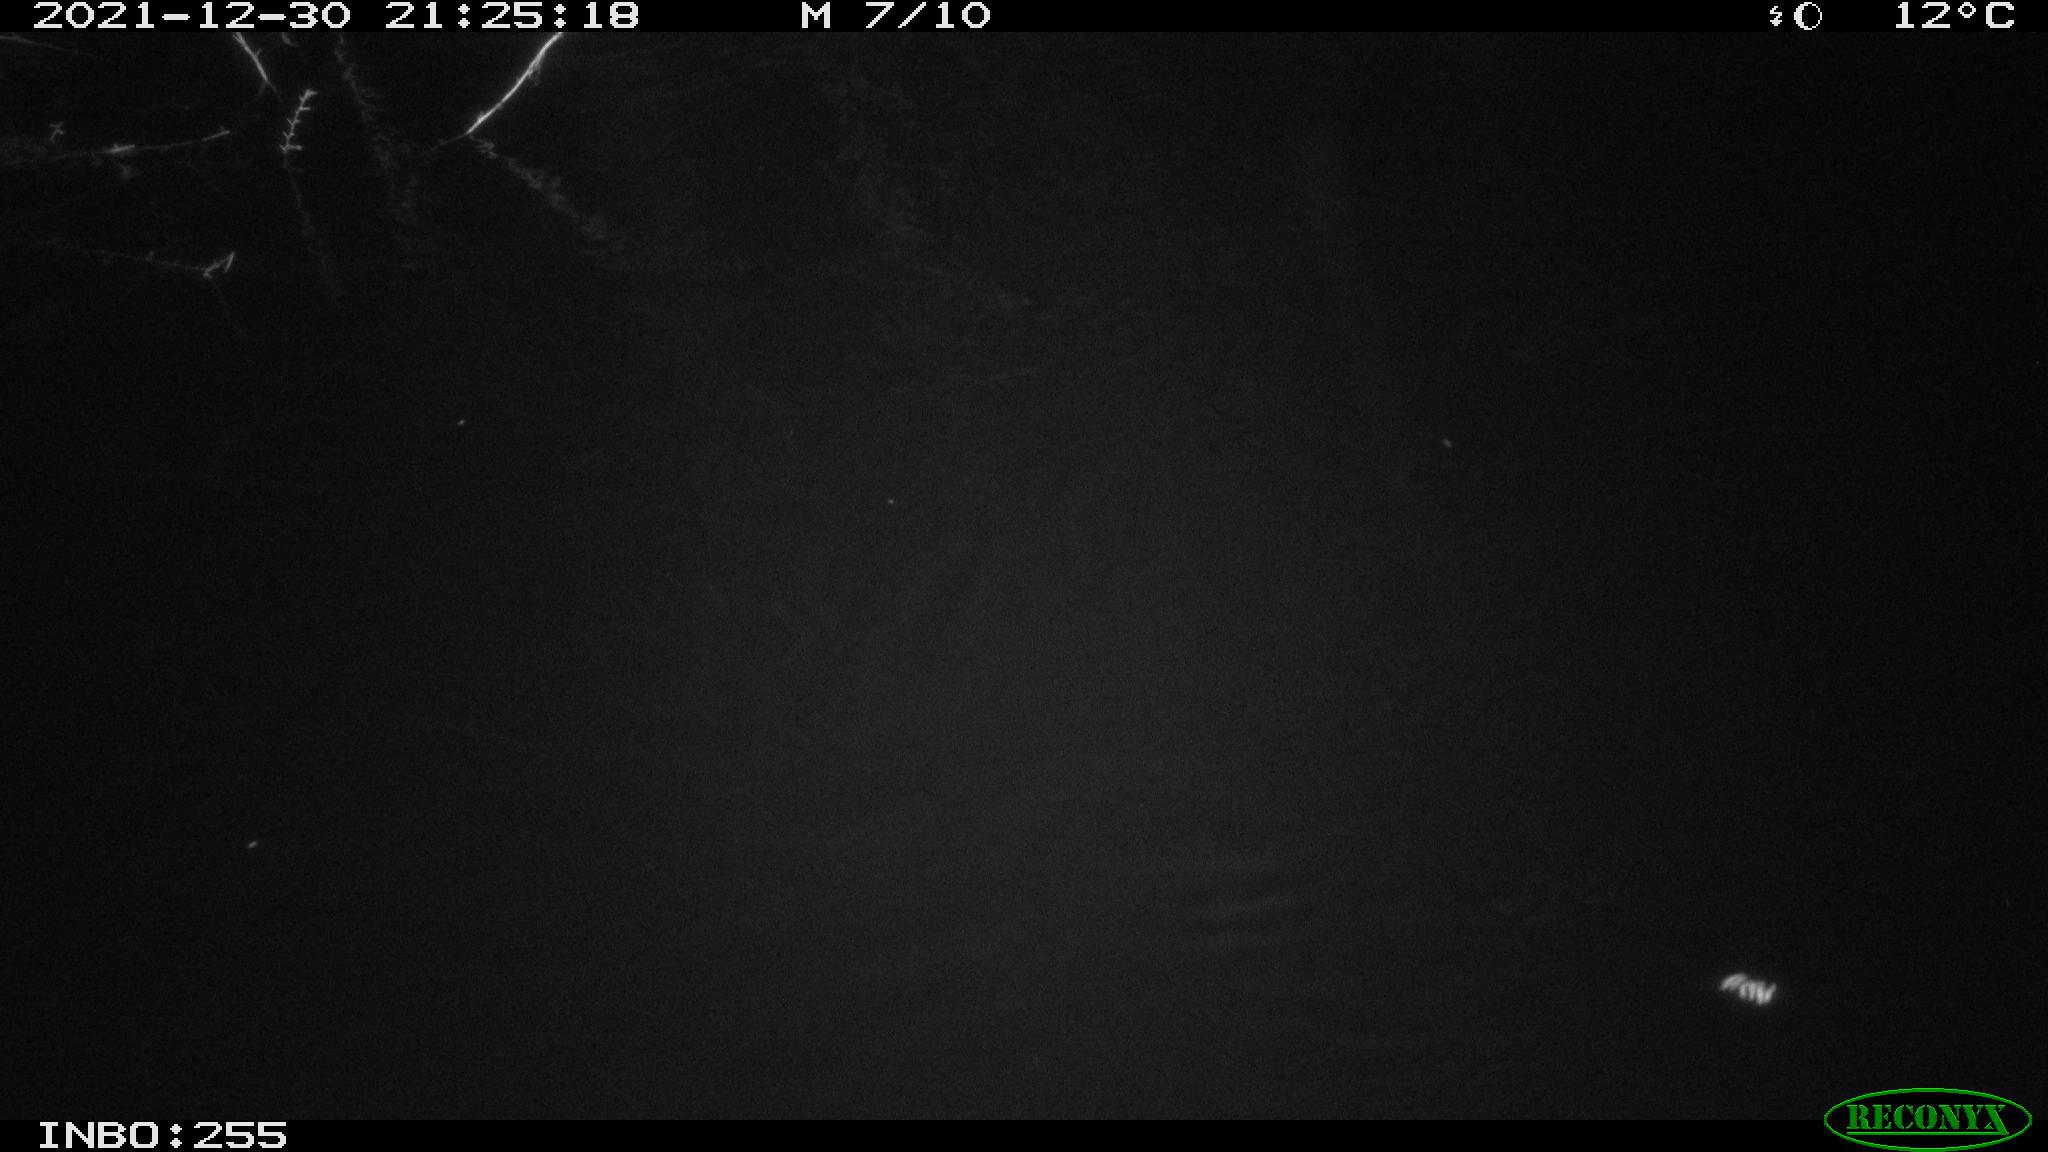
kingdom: Animalia
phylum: Chordata
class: Mammalia
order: Rodentia
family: Muridae
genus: Rattus
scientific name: Rattus norvegicus
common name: Brown rat
